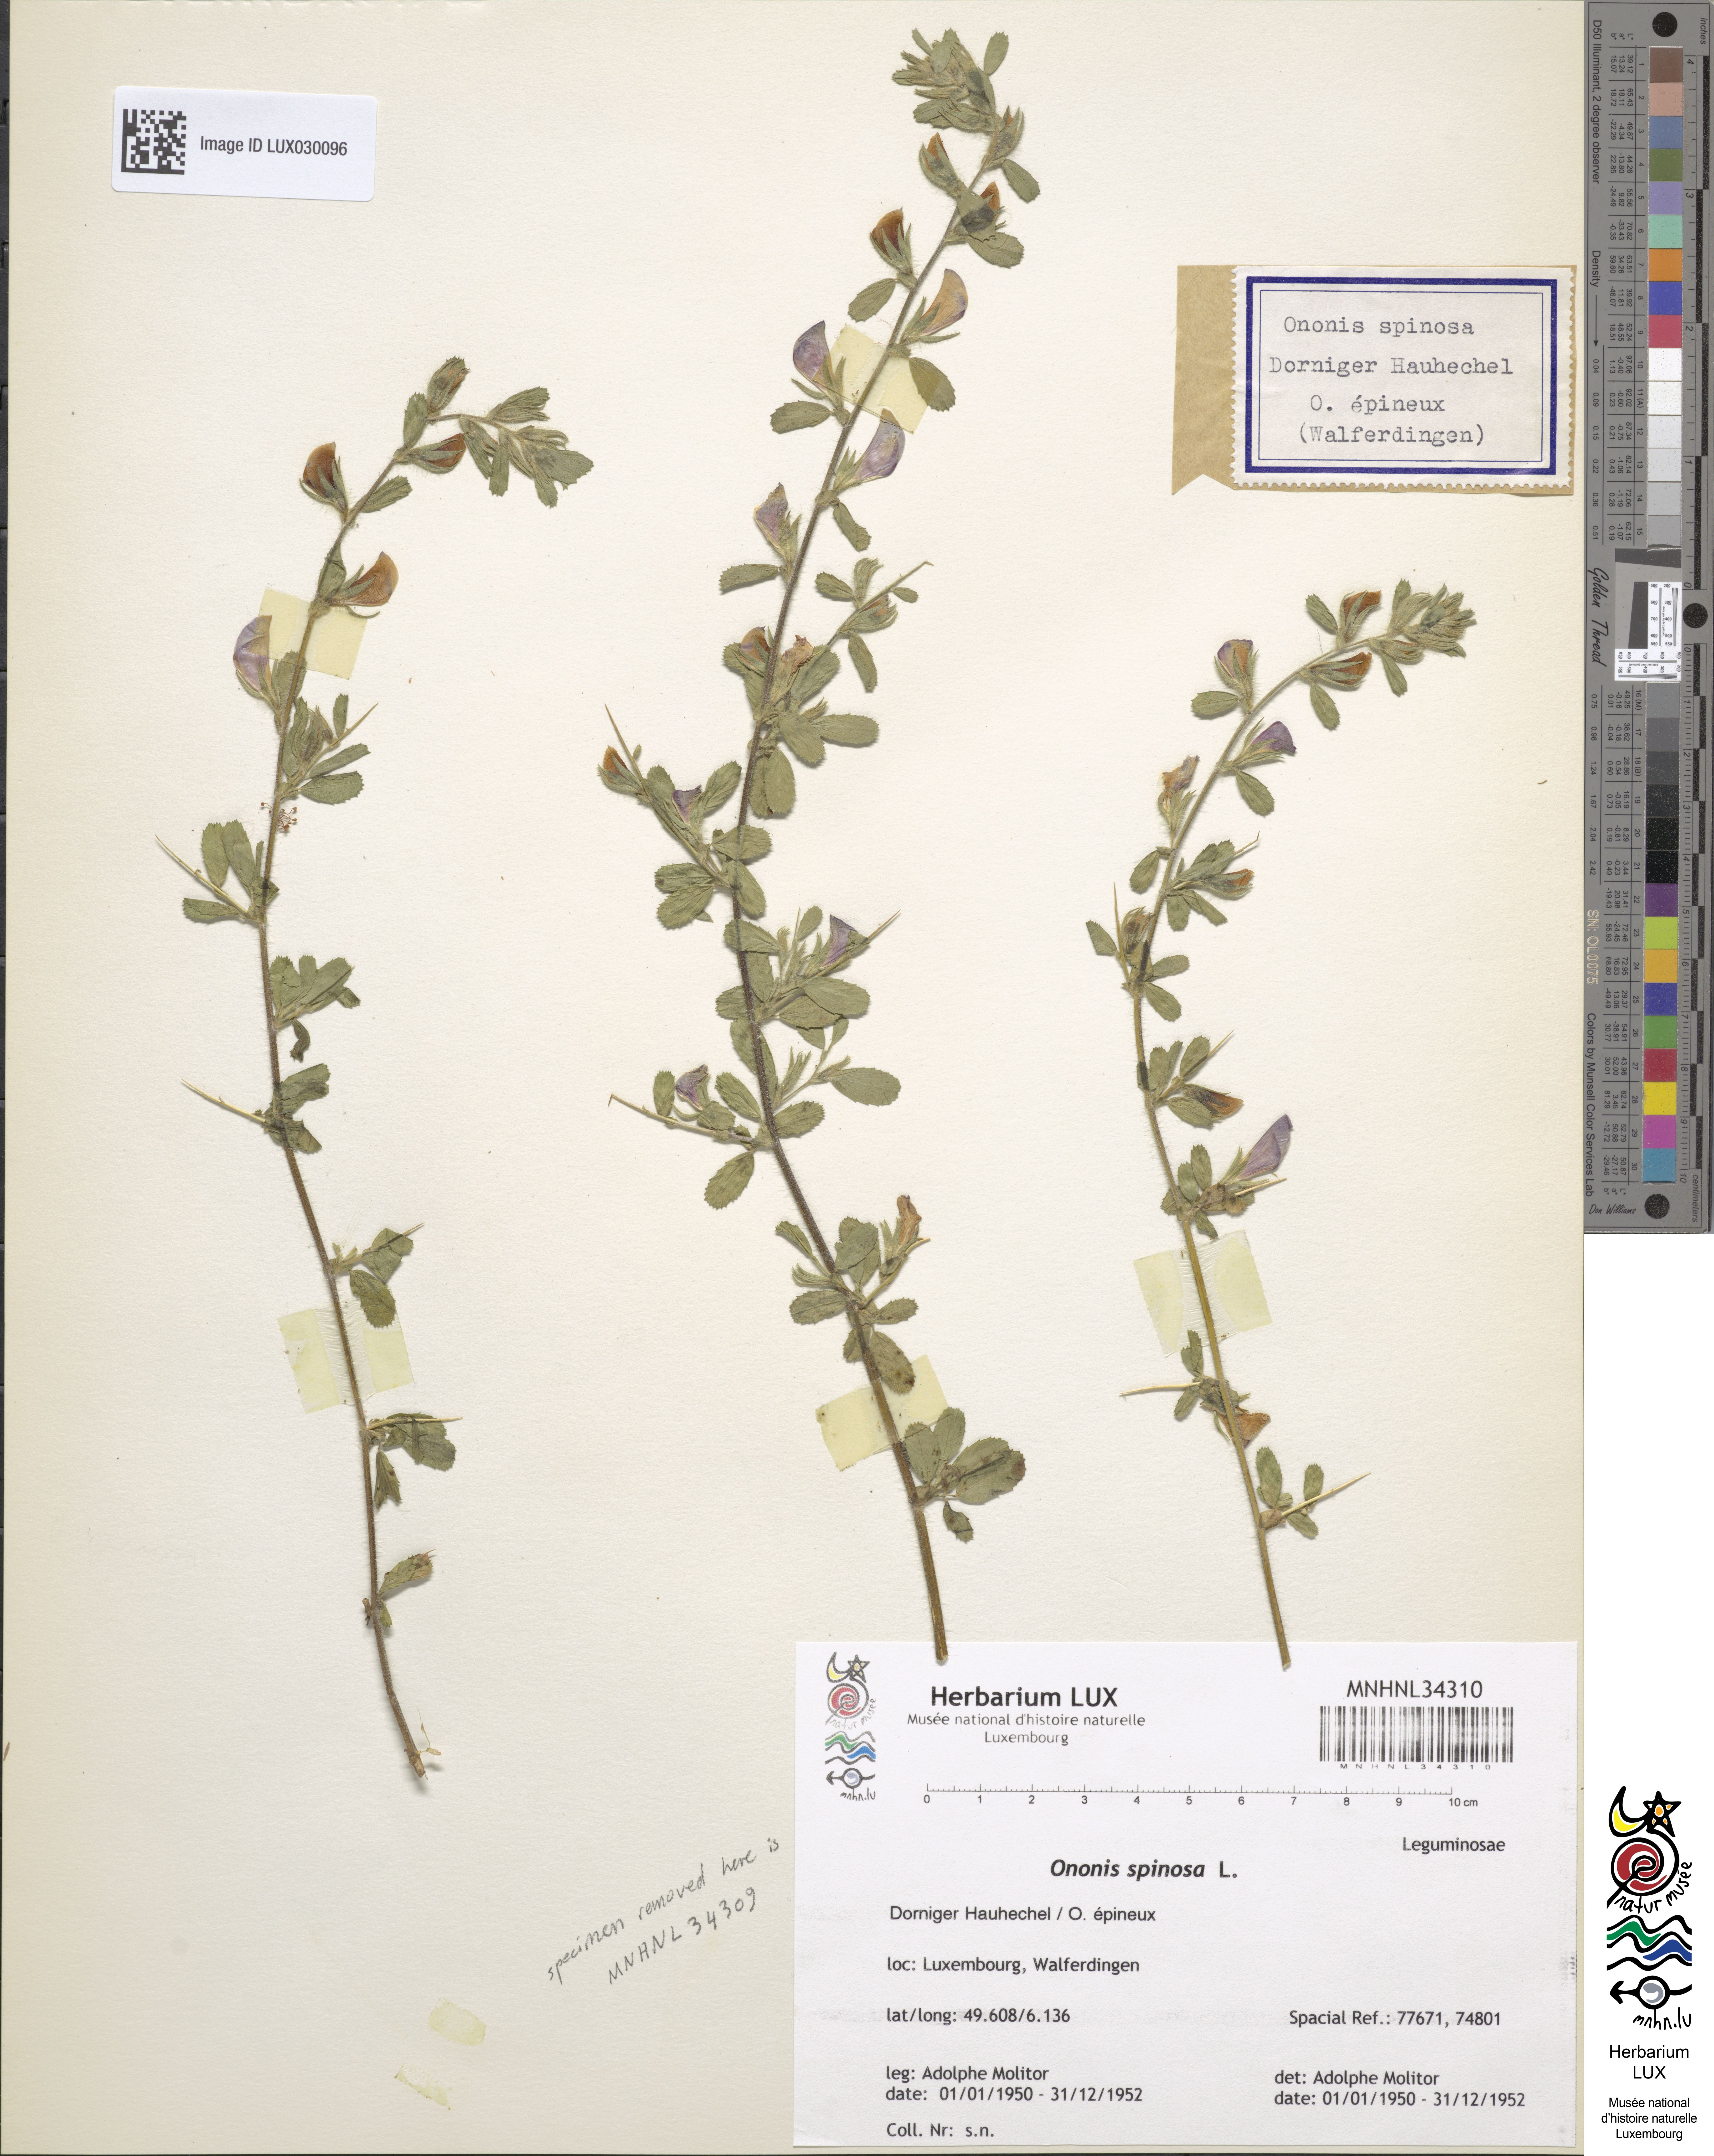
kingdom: Plantae
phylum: Tracheophyta
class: Magnoliopsida
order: Fabales
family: Fabaceae
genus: Ononis
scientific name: Ononis spinosa
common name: Spiny restharrow
